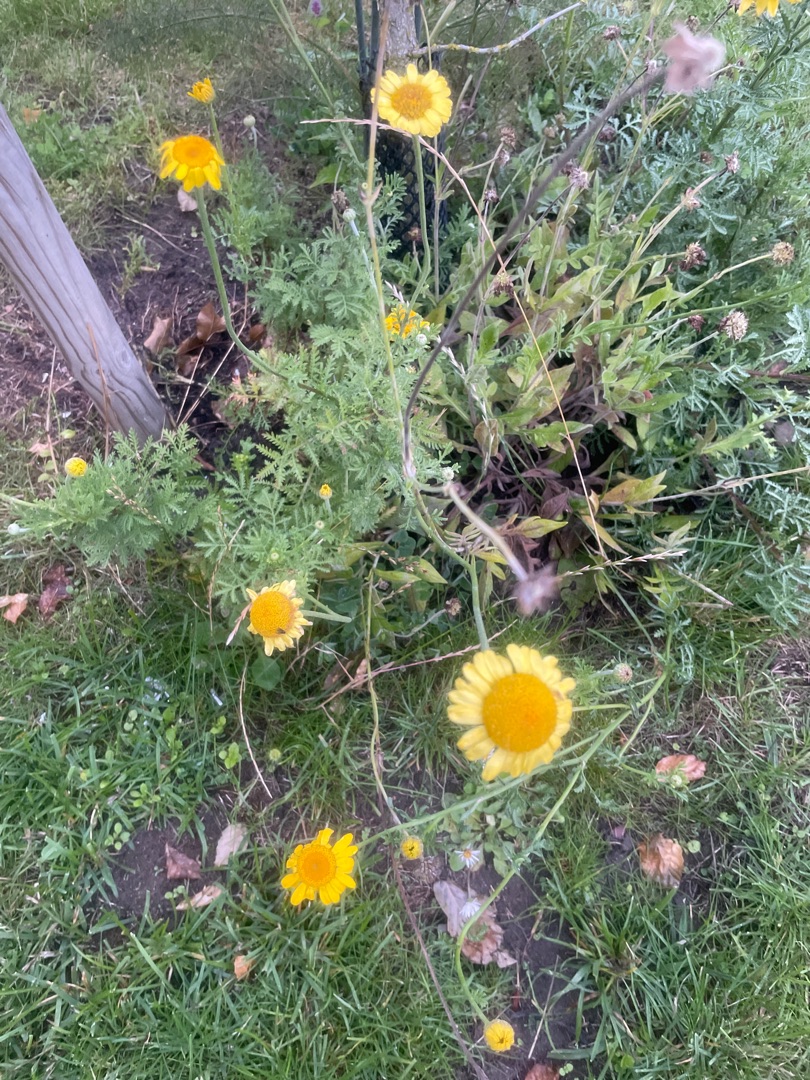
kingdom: Plantae
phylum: Tracheophyta
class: Magnoliopsida
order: Asterales
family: Asteraceae
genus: Cota
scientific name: Cota tinctoria
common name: Farve-gåseurt
